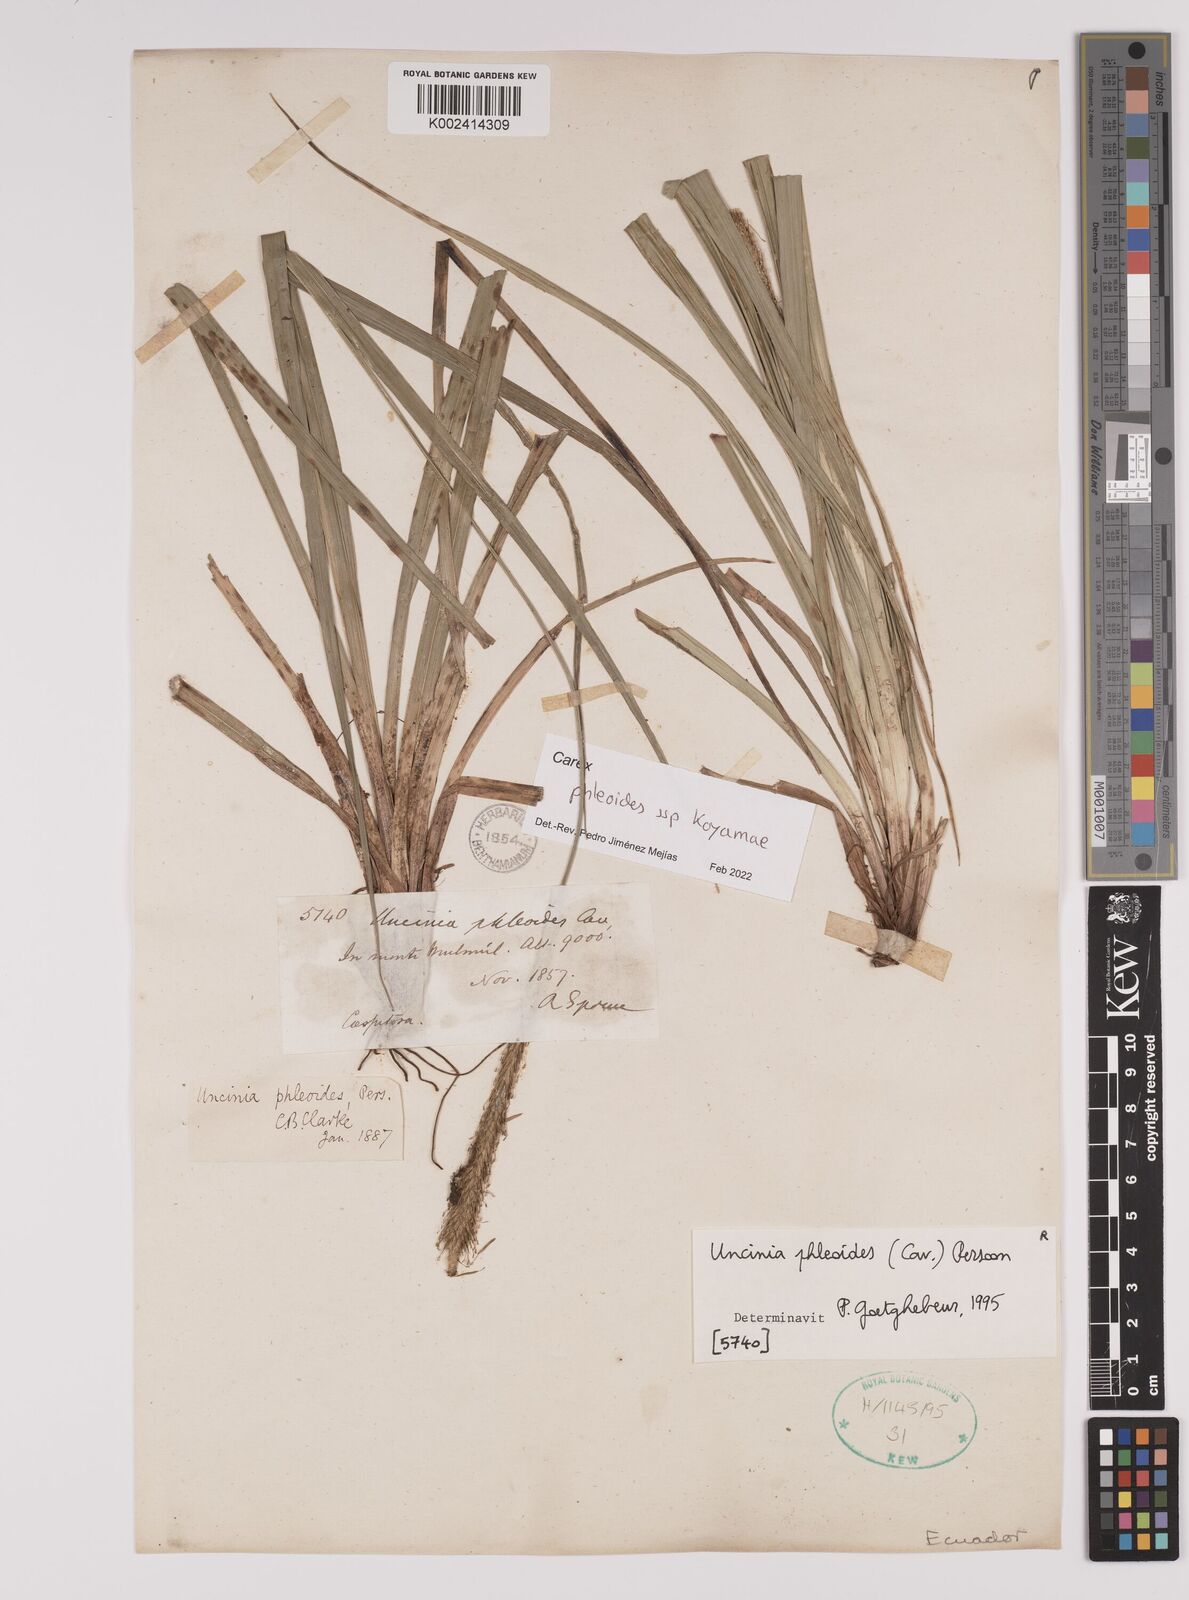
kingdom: Plantae
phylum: Tracheophyta
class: Liliopsida
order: Poales
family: Cyperaceae
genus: Carex
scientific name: Carex phleoides
